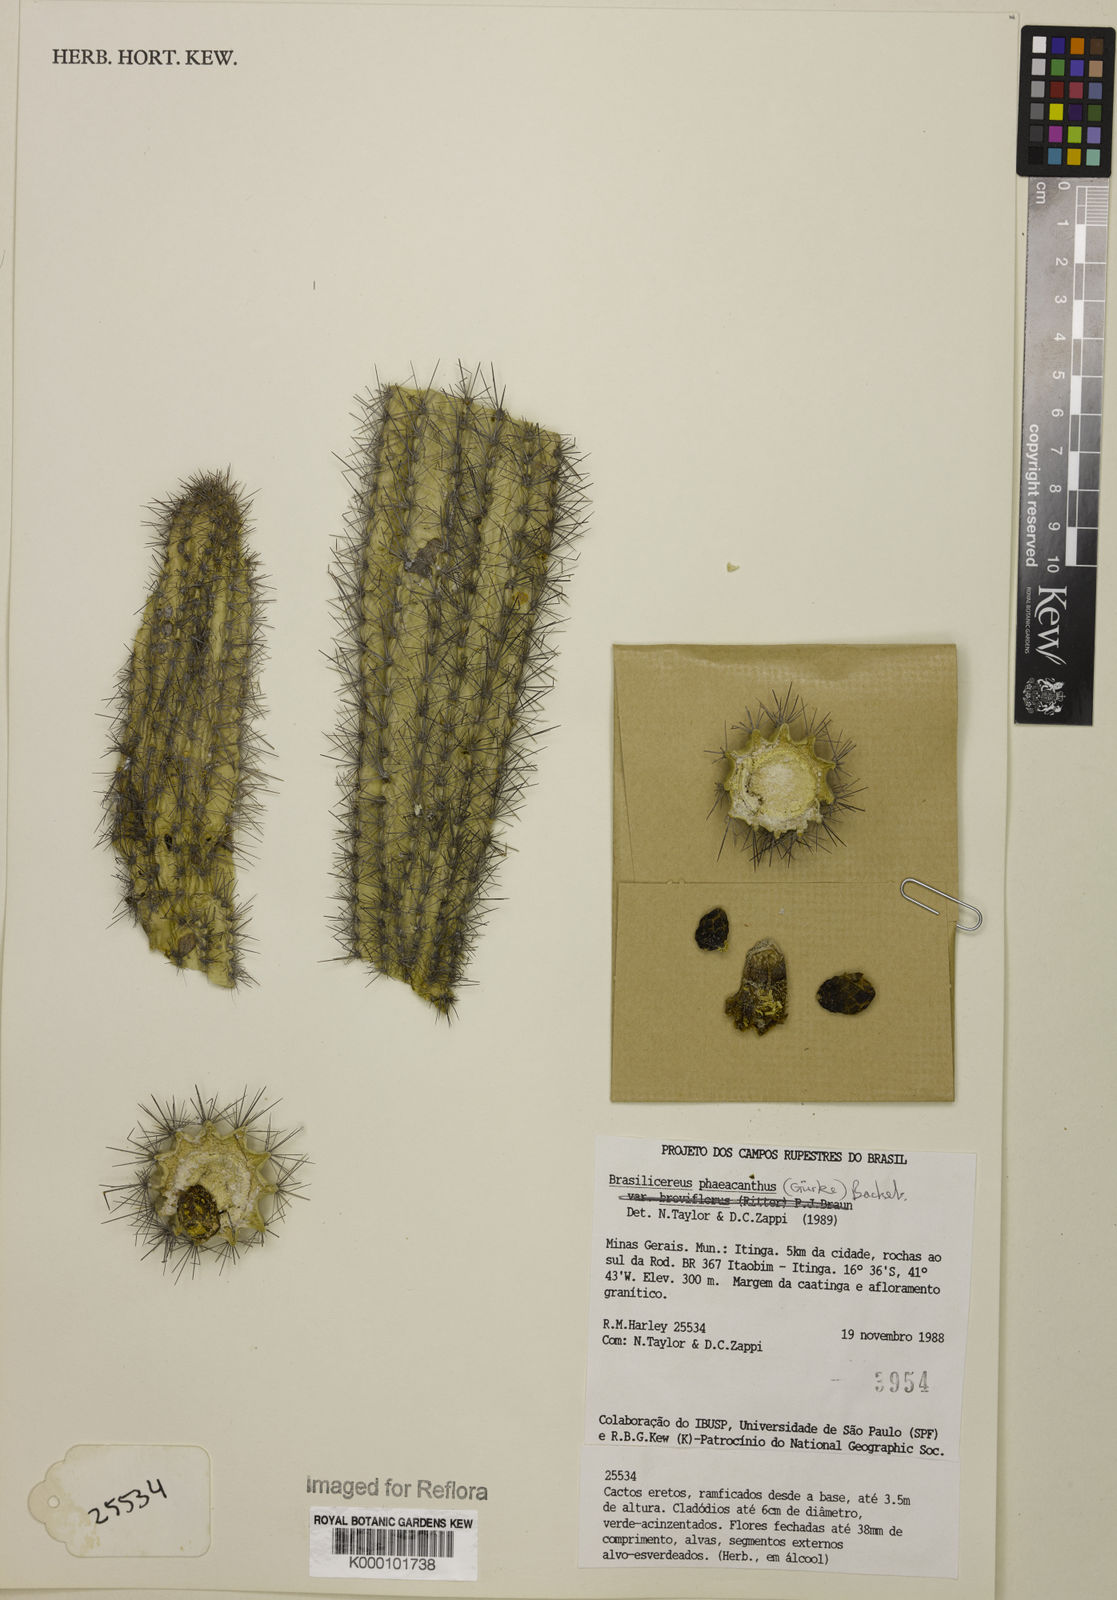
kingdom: Plantae
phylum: Tracheophyta
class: Magnoliopsida
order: Caryophyllales
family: Cactaceae
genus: Brasilicereus
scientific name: Brasilicereus phaeacanthus
